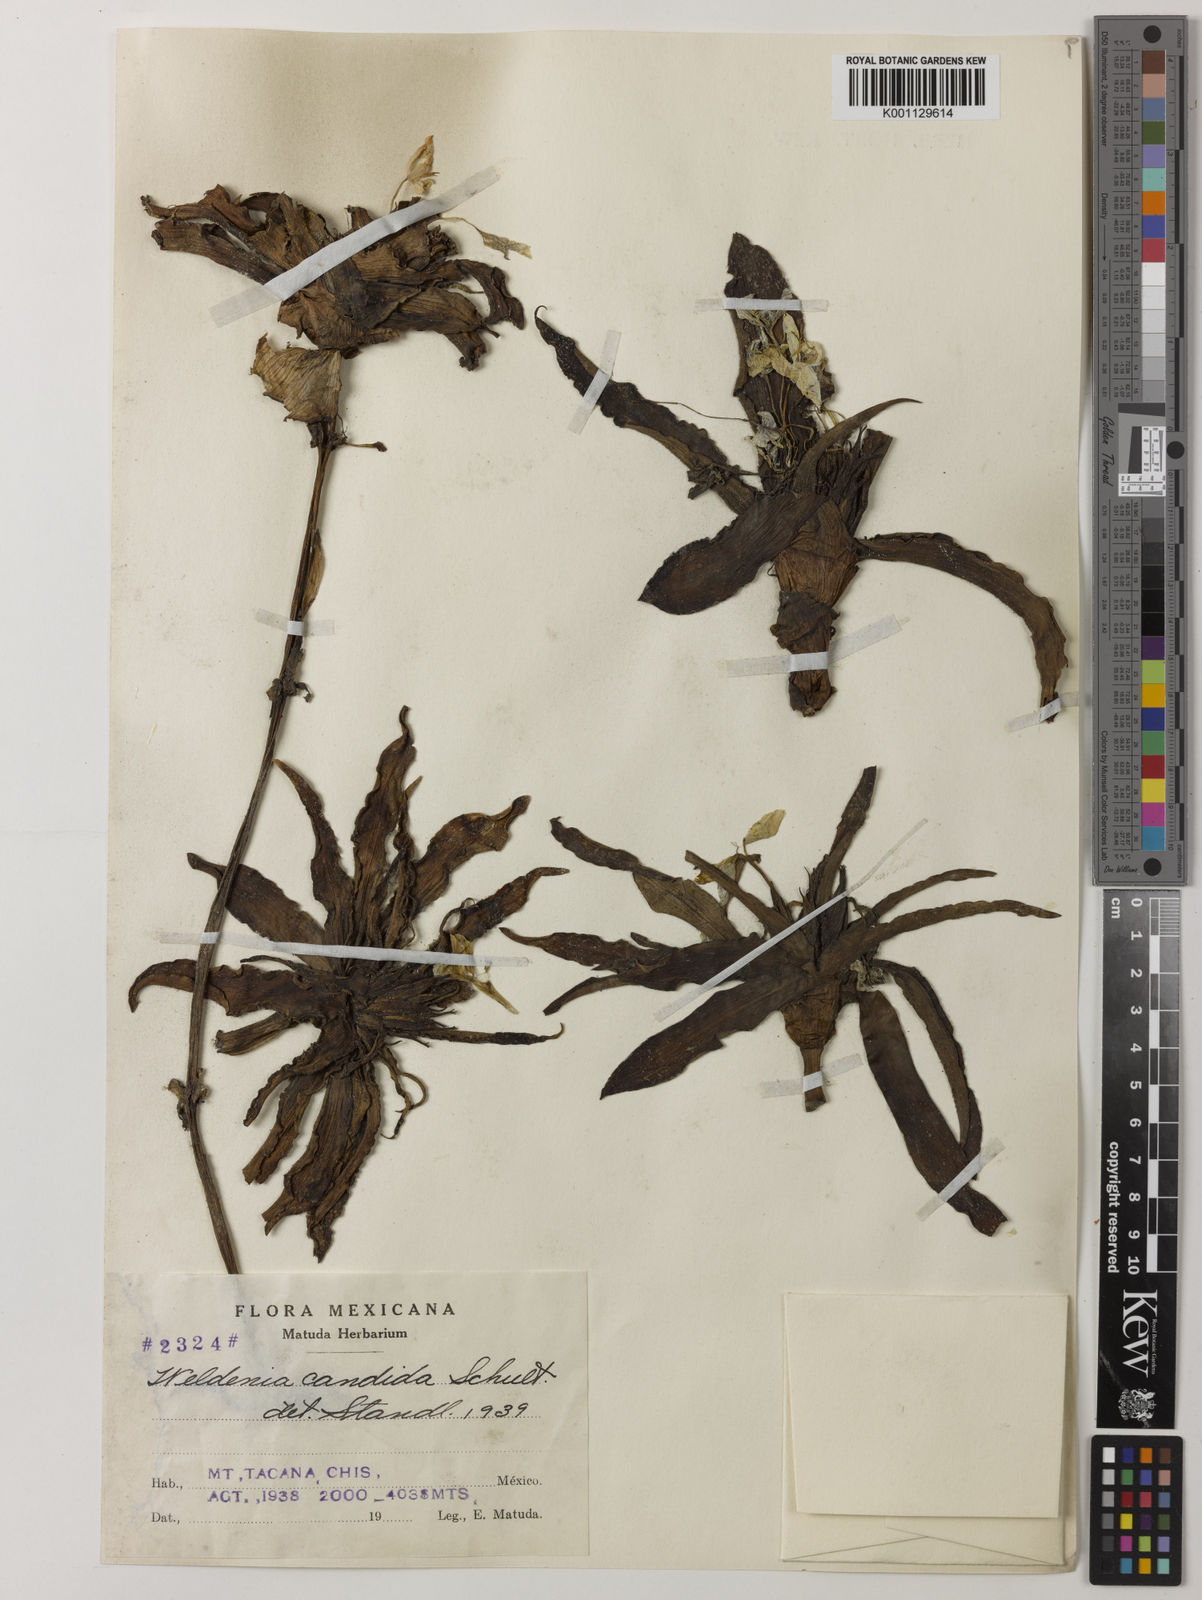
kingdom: Plantae
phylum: Tracheophyta
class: Liliopsida
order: Commelinales
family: Commelinaceae
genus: Weldenia
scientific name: Weldenia candida
